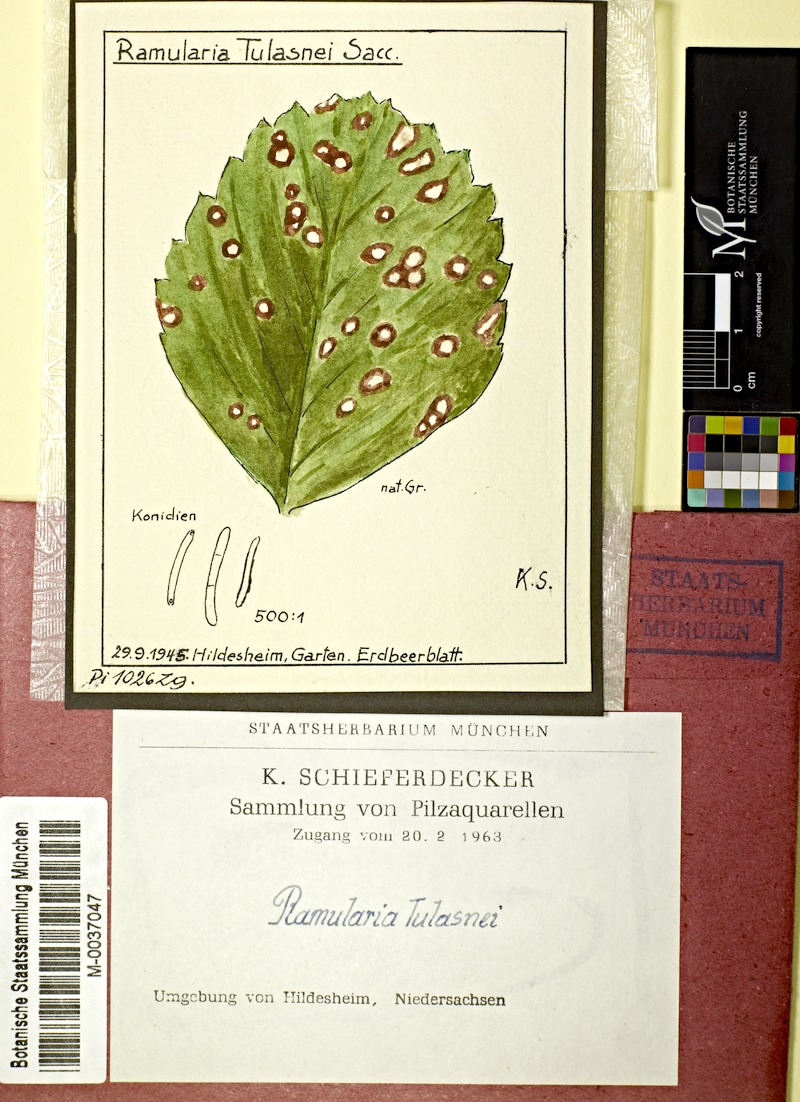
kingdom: Plantae
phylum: Tracheophyta
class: Magnoliopsida
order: Rosales
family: Rosaceae
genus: Fragaria
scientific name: Fragaria
